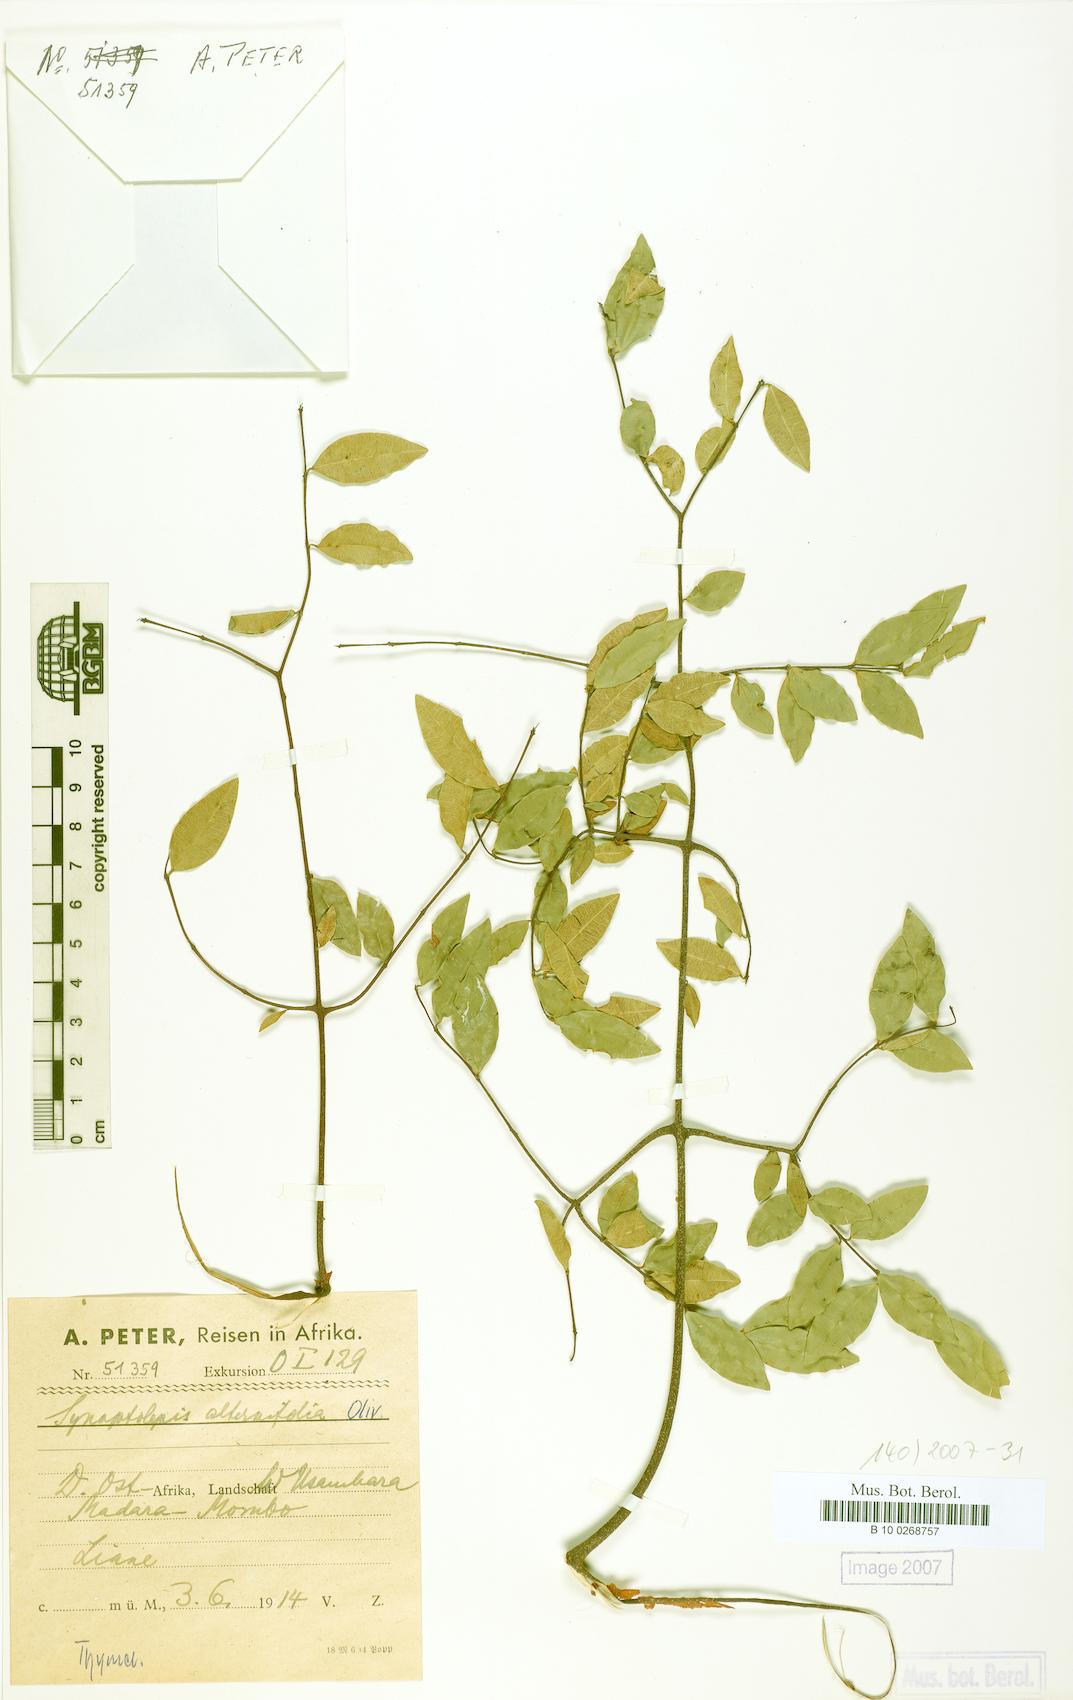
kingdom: Plantae
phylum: Tracheophyta
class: Magnoliopsida
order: Malvales
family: Thymelaeaceae
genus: Synaptolepis
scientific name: Synaptolepis alternifolia
